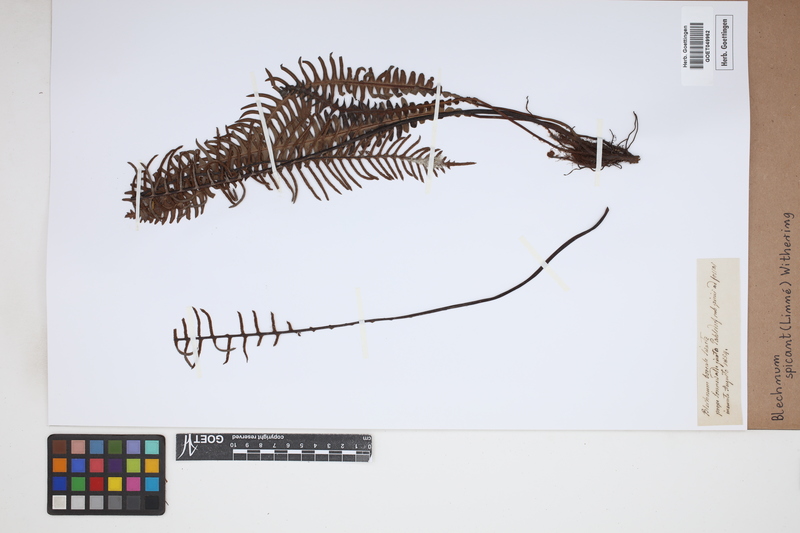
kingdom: Plantae
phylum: Tracheophyta
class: Polypodiopsida
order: Polypodiales
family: Blechnaceae
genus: Struthiopteris
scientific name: Struthiopteris spicant
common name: Deer fern
